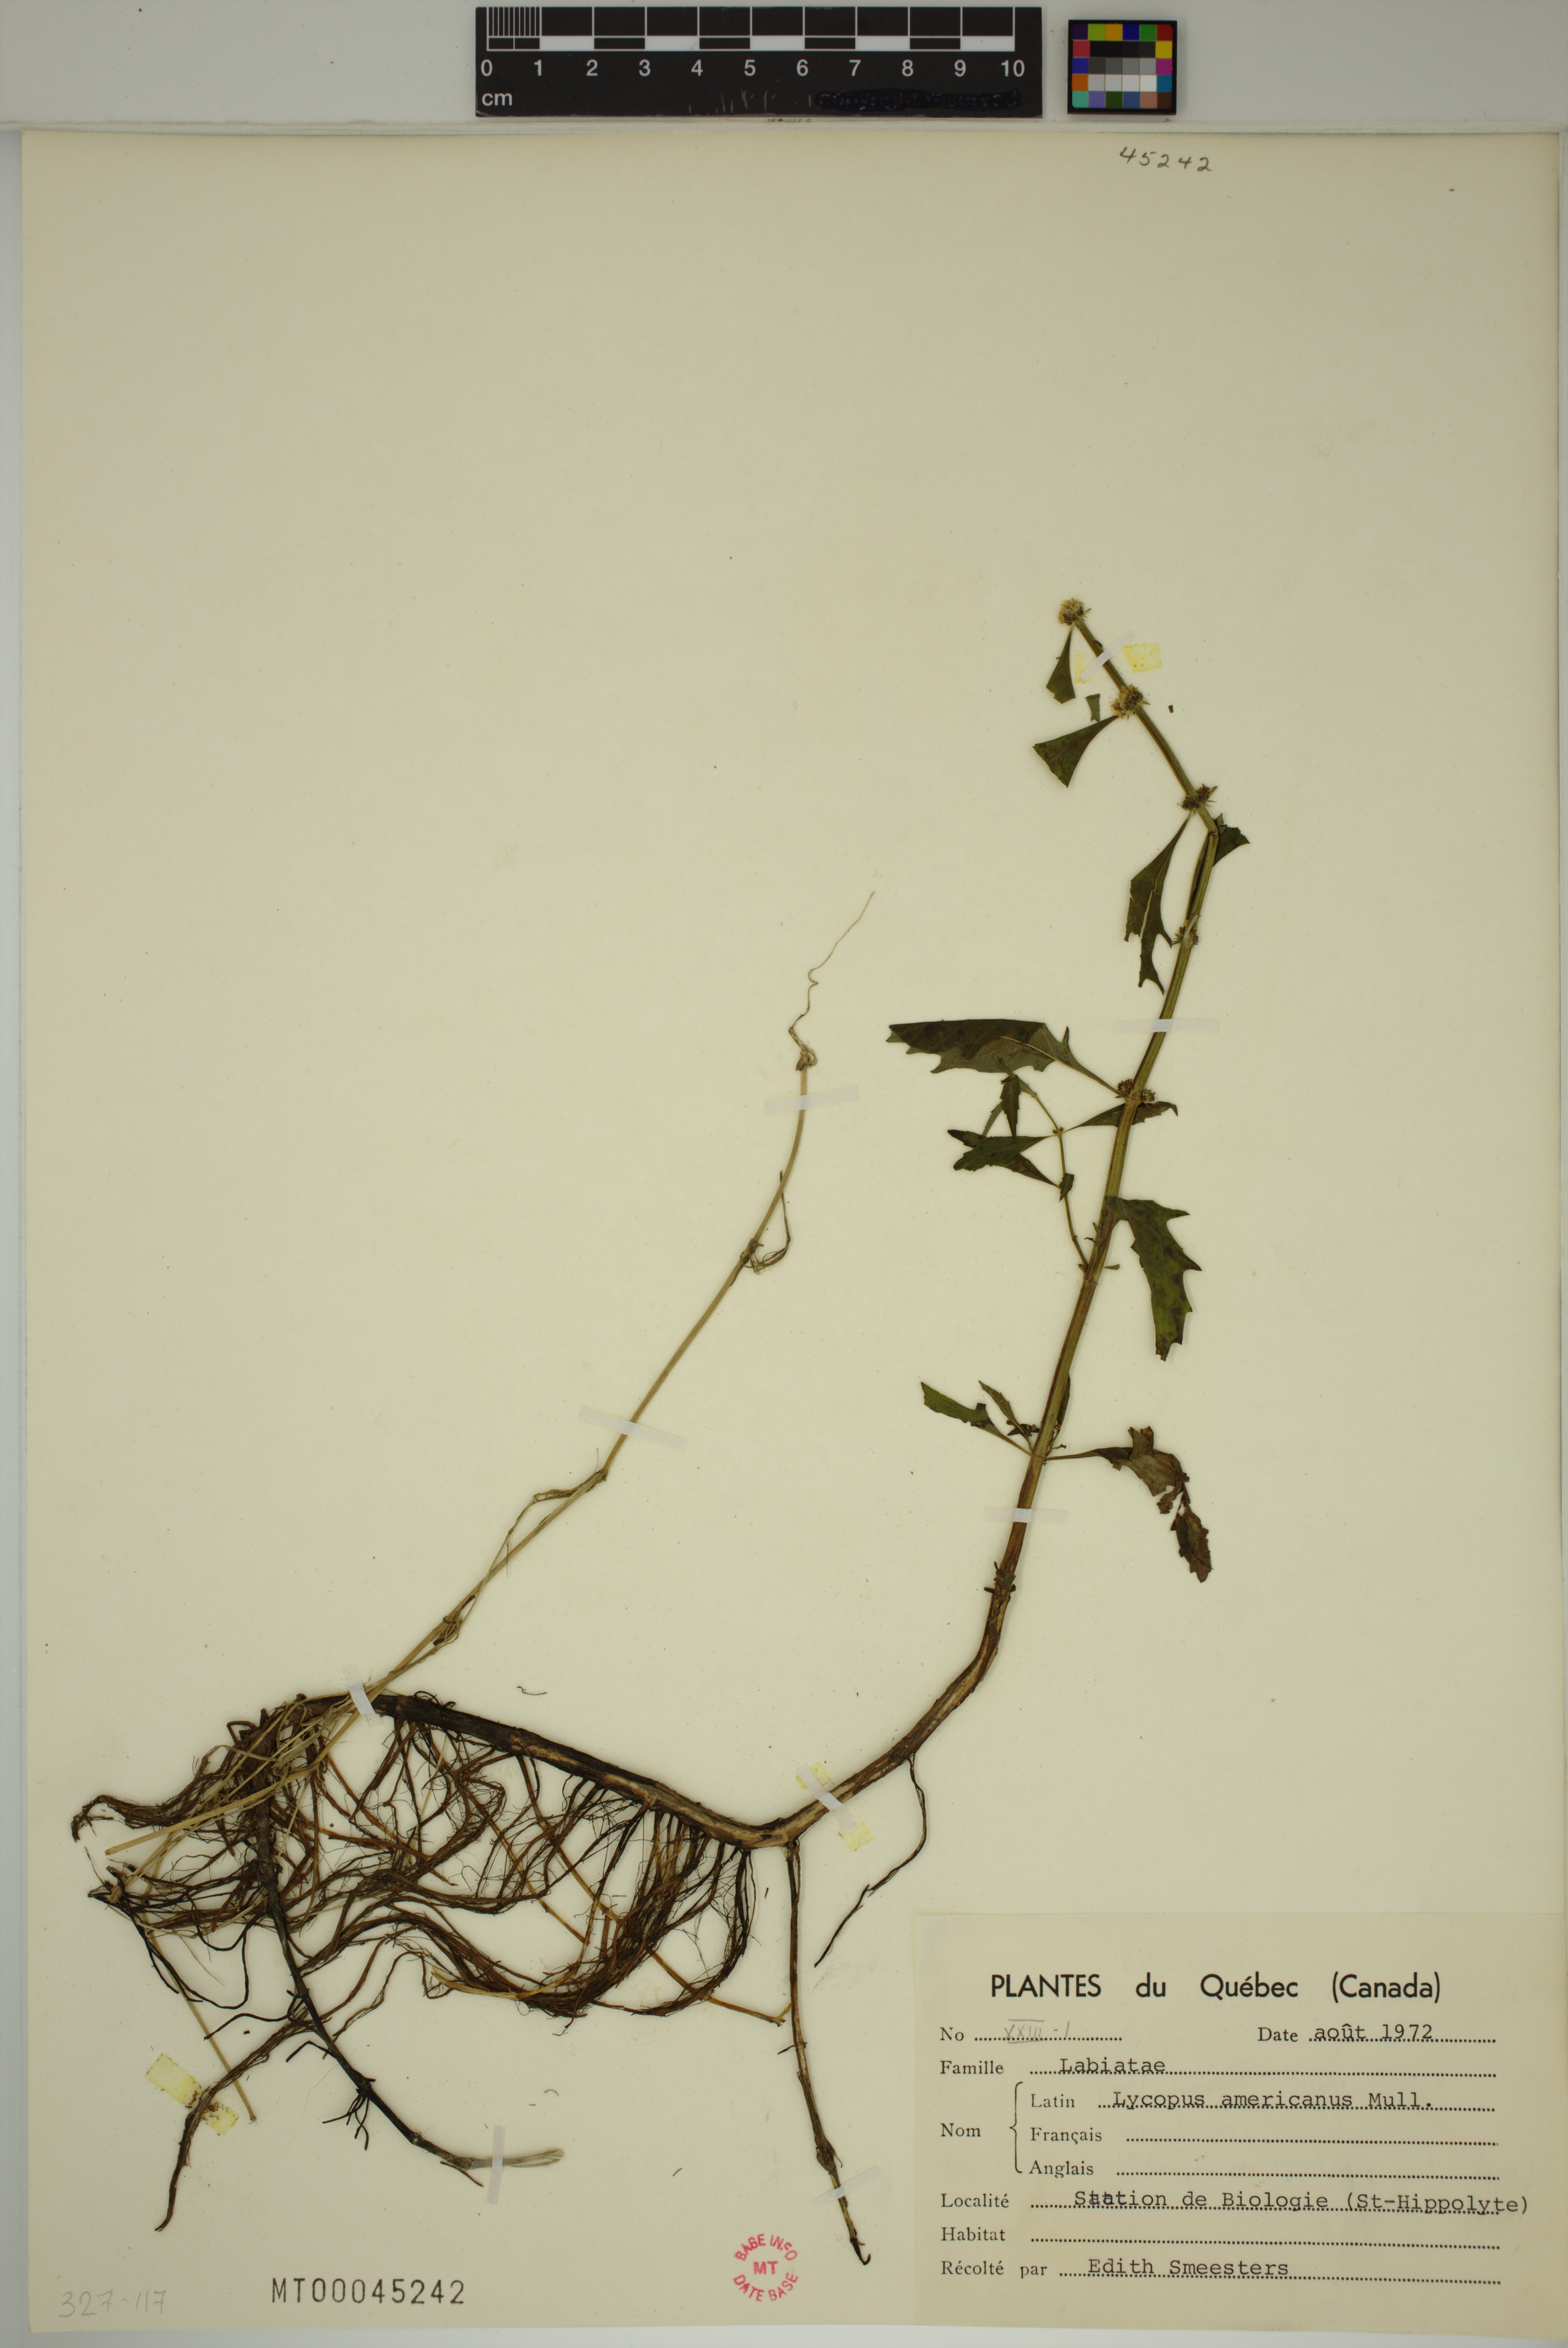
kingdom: Plantae
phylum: Tracheophyta
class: Magnoliopsida
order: Lamiales
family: Lamiaceae
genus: Lycopus
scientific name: Lycopus americanus
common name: American bugleweed
